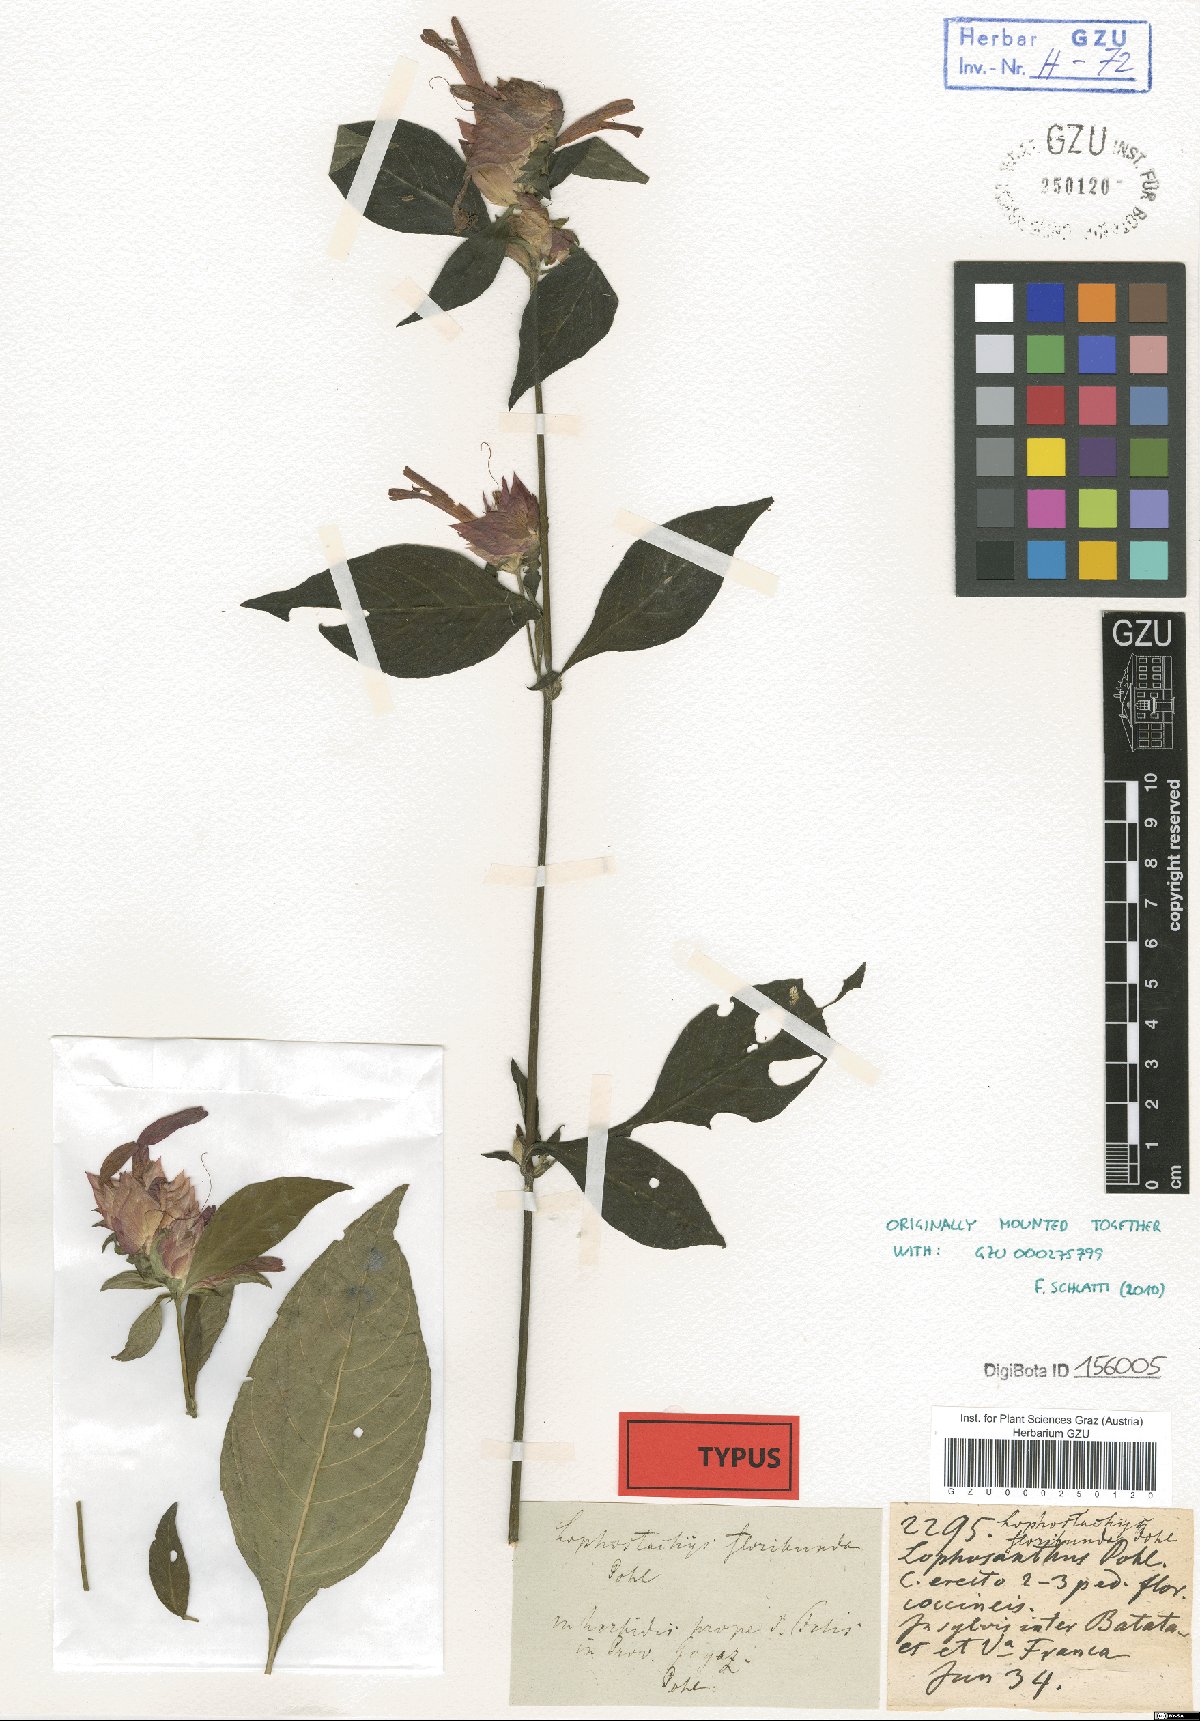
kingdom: Plantae
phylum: Tracheophyta
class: Magnoliopsida
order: Lamiales
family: Acanthaceae
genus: Lepidagathis
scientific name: Lepidagathis floribunda
